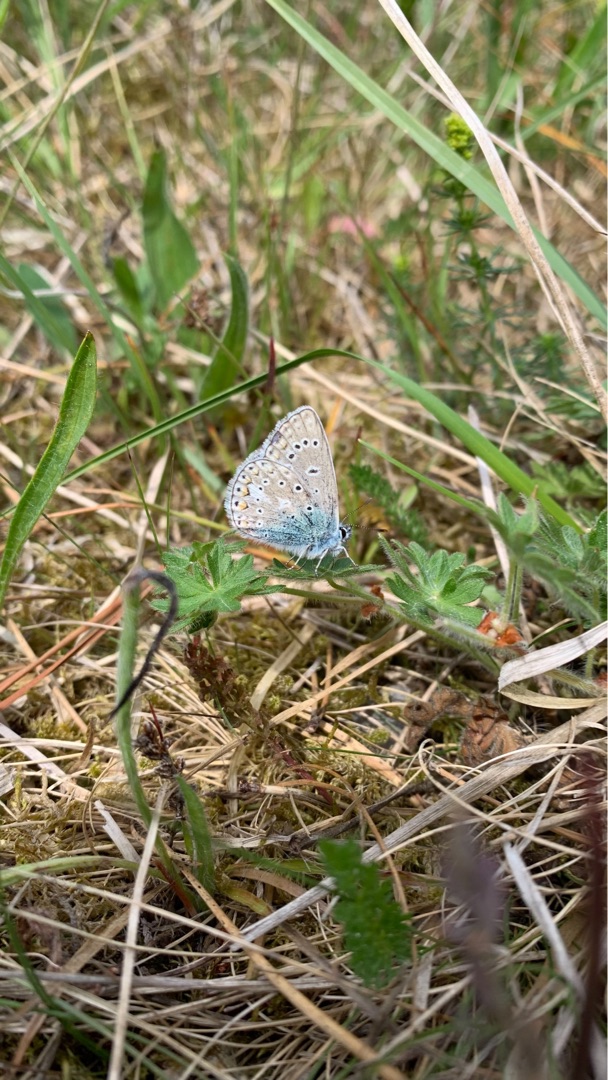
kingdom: Animalia
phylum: Arthropoda
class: Insecta
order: Lepidoptera
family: Lycaenidae
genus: Polyommatus
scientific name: Polyommatus icarus
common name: Almindelig blåfugl
